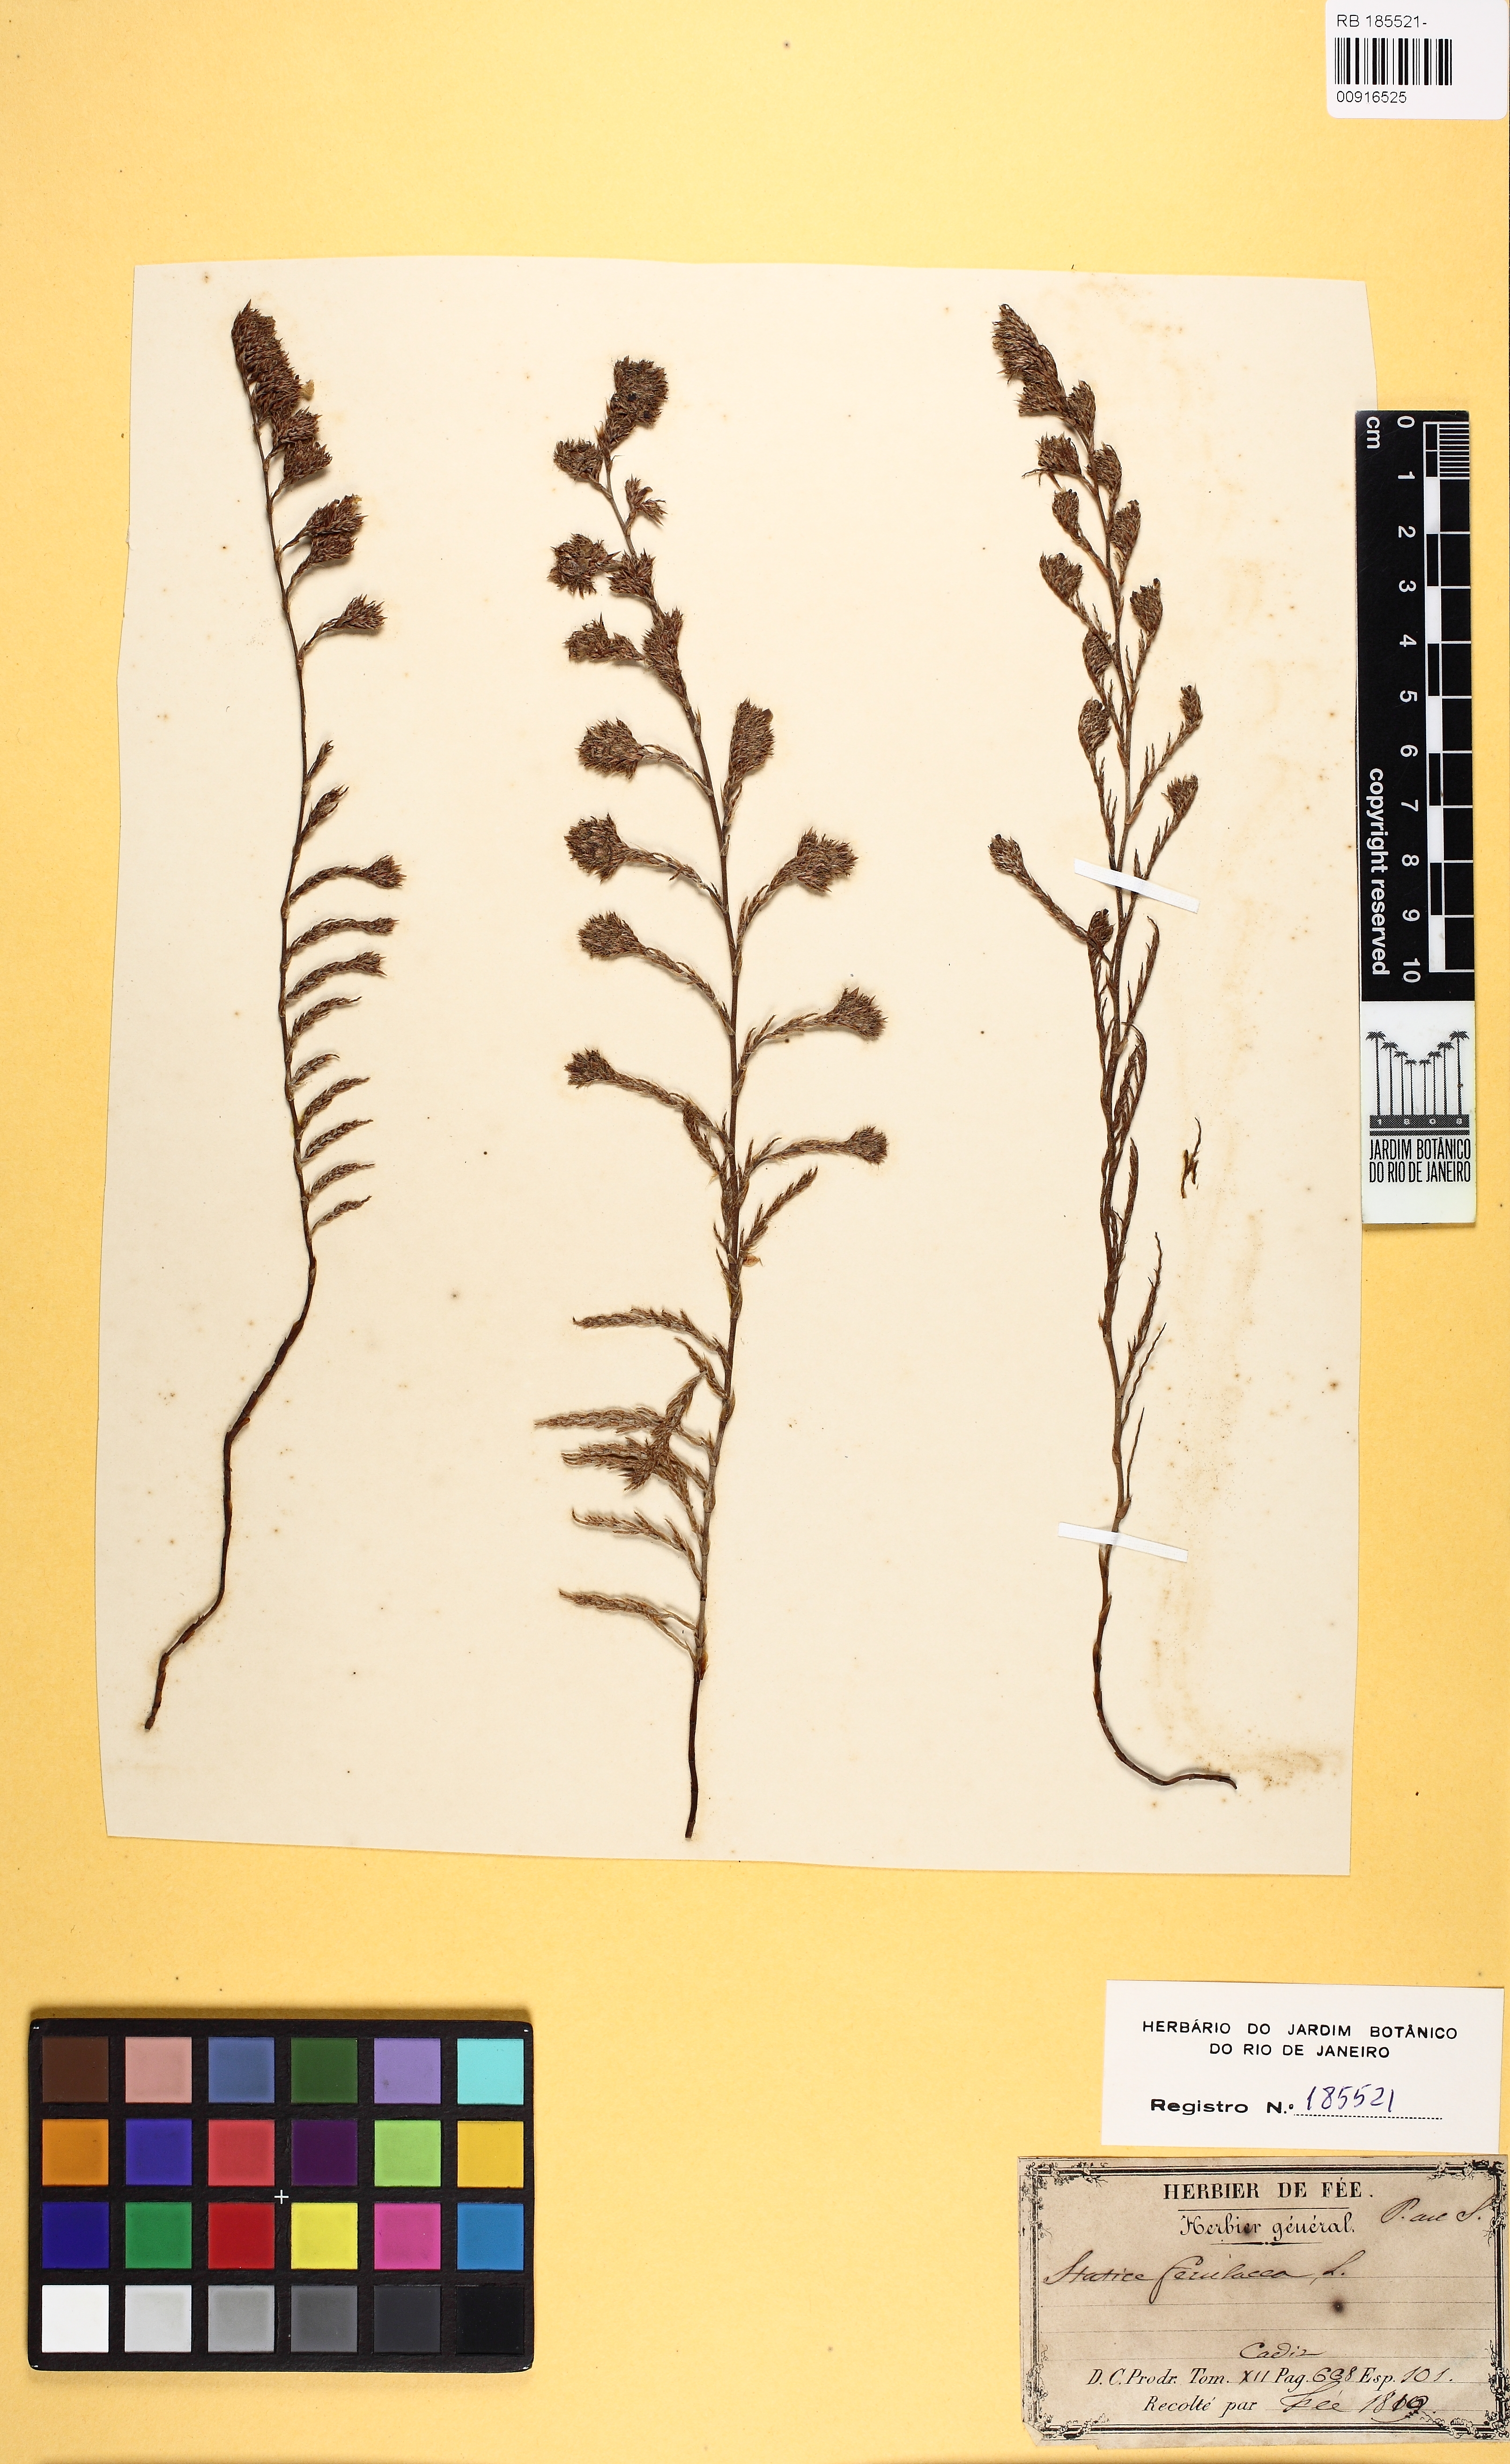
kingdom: Plantae
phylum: Tracheophyta
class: Magnoliopsida
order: Caryophyllales
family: Plumbaginaceae
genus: Myriolimon
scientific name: Myriolimon ferulaceum
